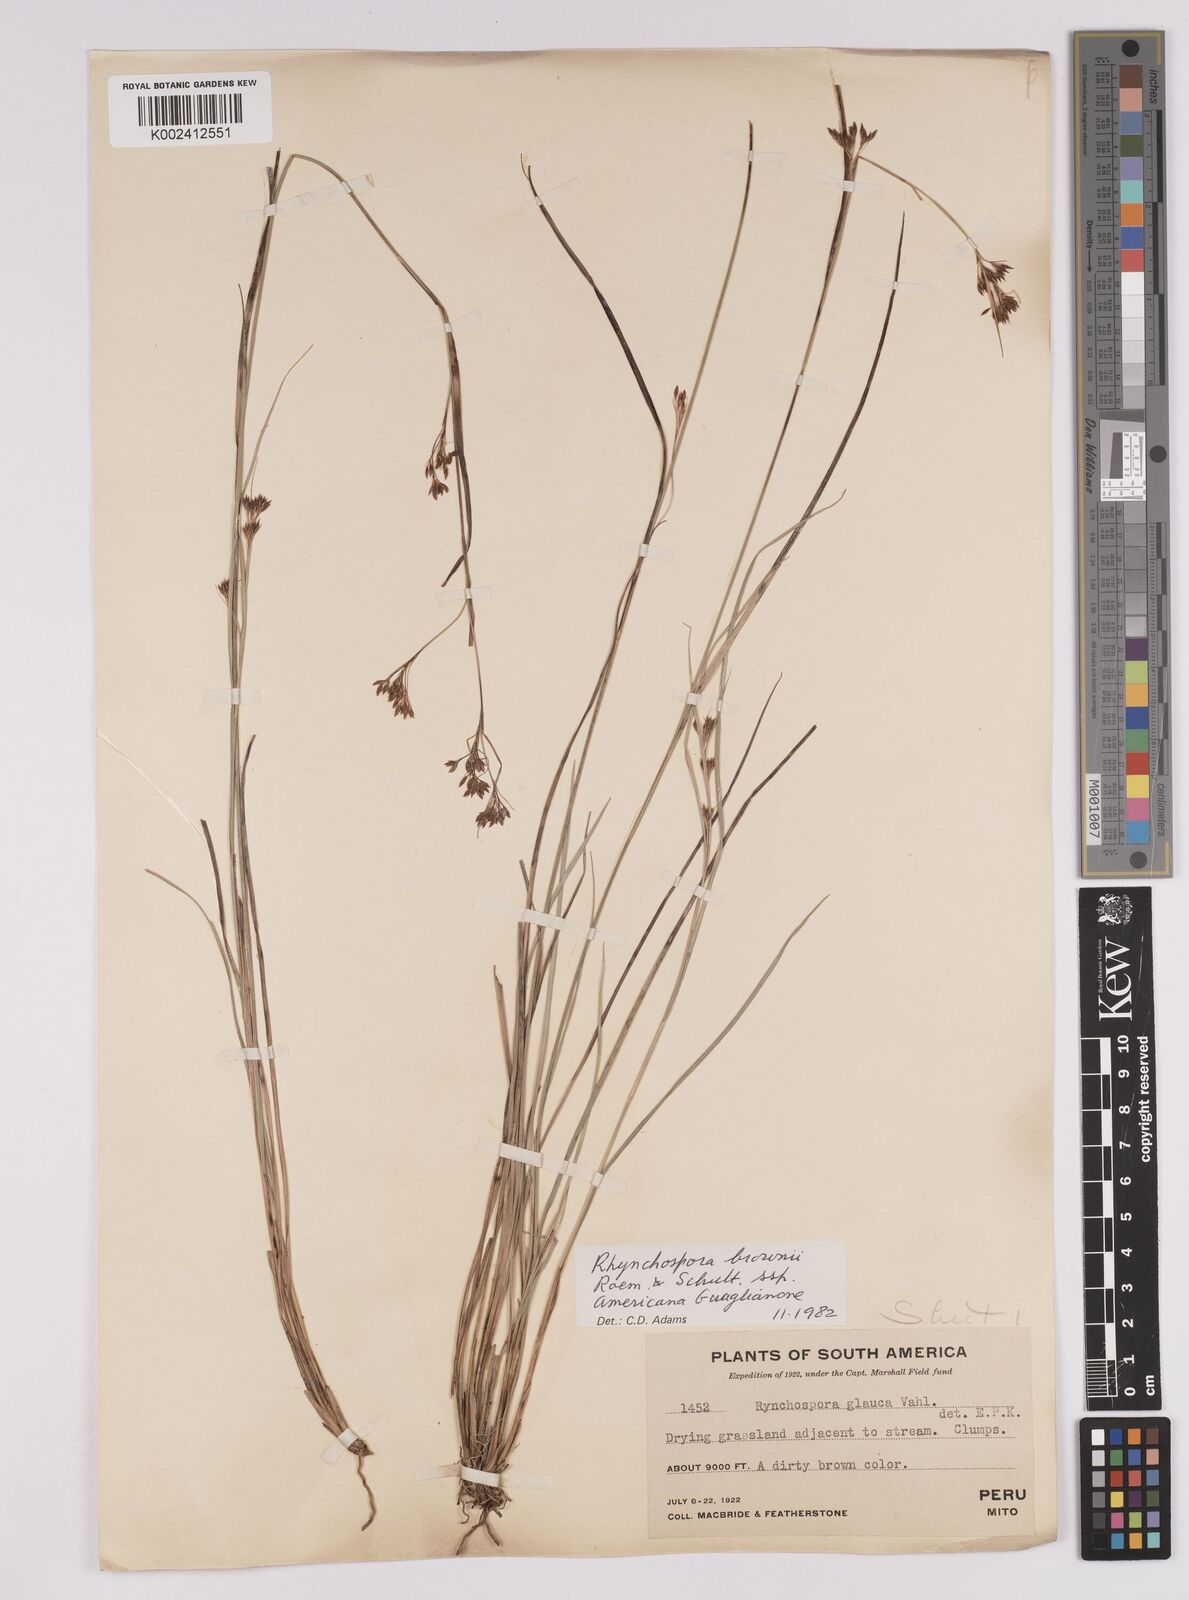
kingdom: Plantae
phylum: Tracheophyta
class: Liliopsida
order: Poales
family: Cyperaceae
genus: Rhynchospora
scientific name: Rhynchospora rugosa
